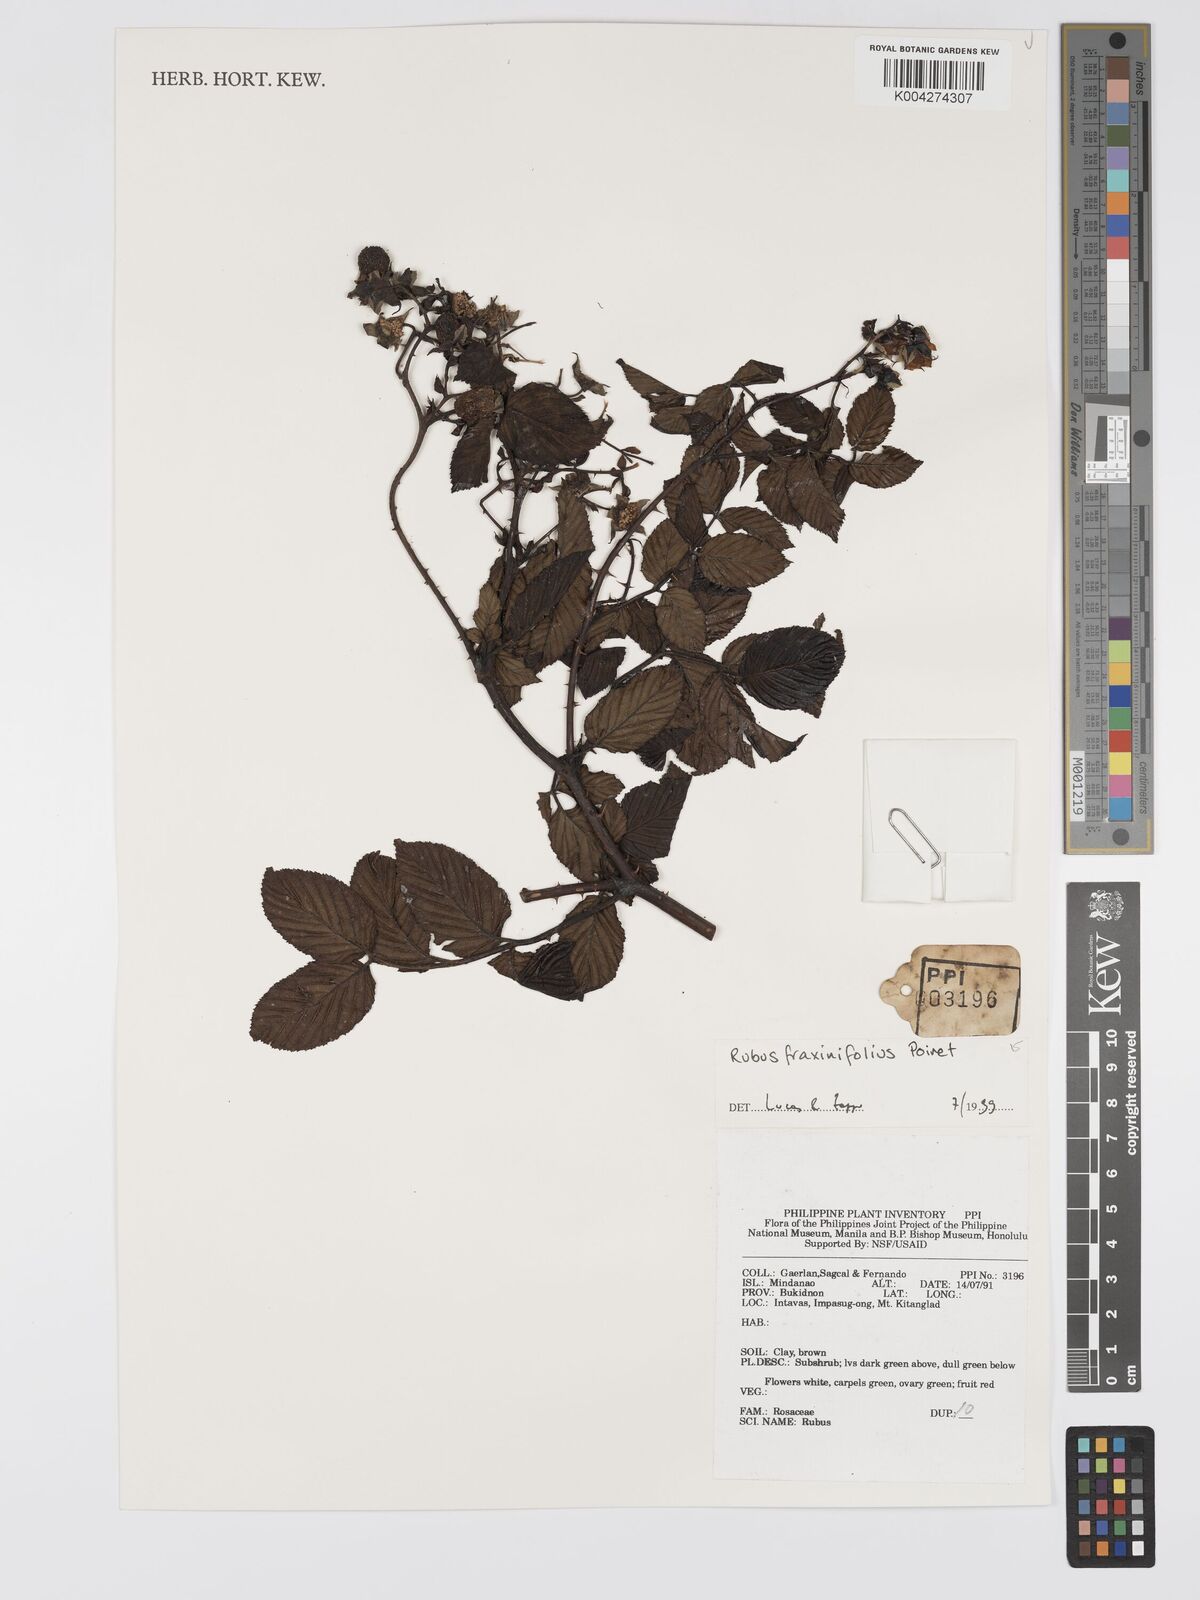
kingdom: Plantae
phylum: Tracheophyta
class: Magnoliopsida
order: Rosales
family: Rosaceae
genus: Rubus
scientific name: Rubus fraxinifolius
